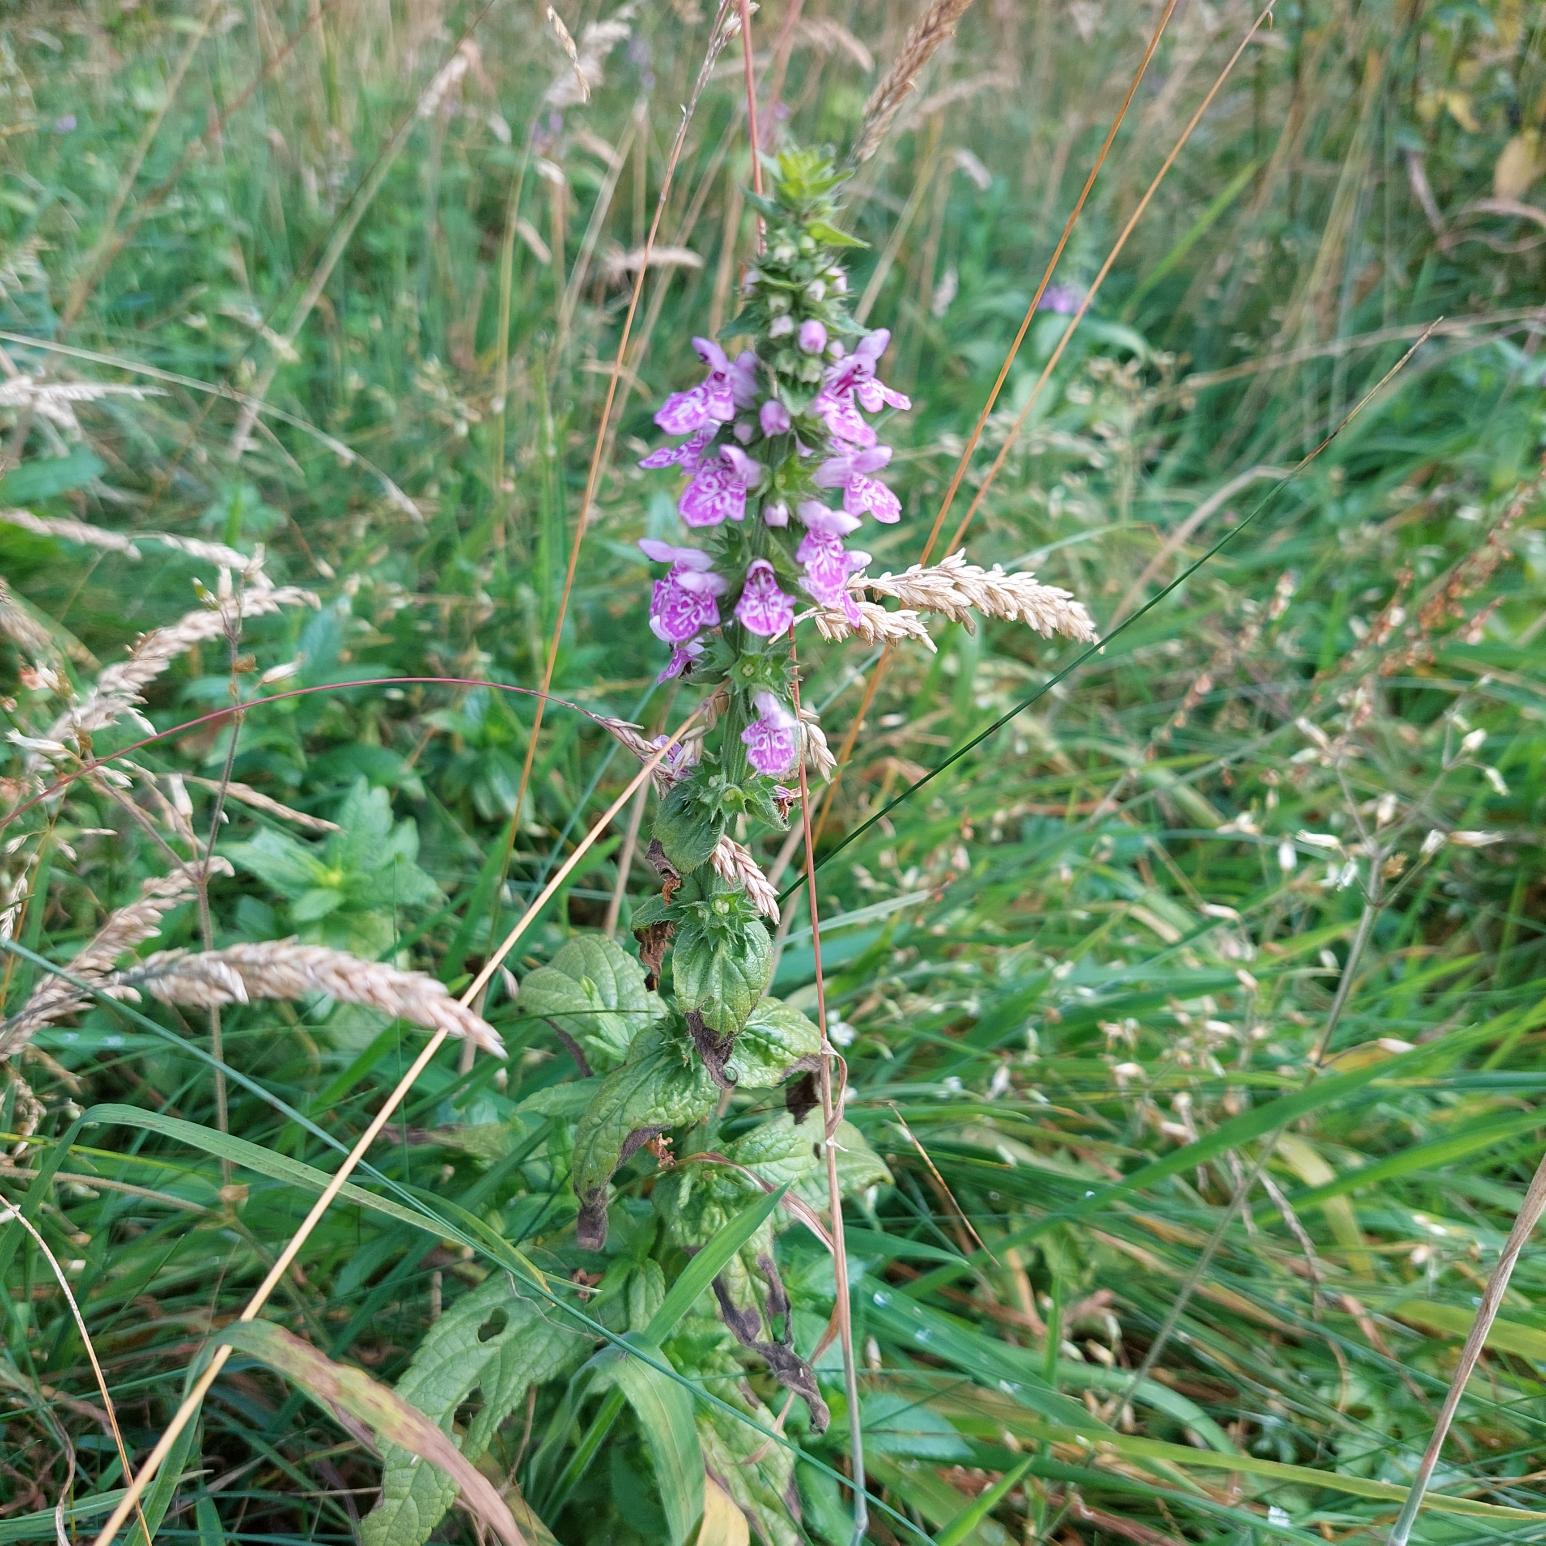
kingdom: Plantae
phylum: Tracheophyta
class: Magnoliopsida
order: Lamiales
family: Lamiaceae
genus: Stachys
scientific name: Stachys palustris
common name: Kær-galtetand
